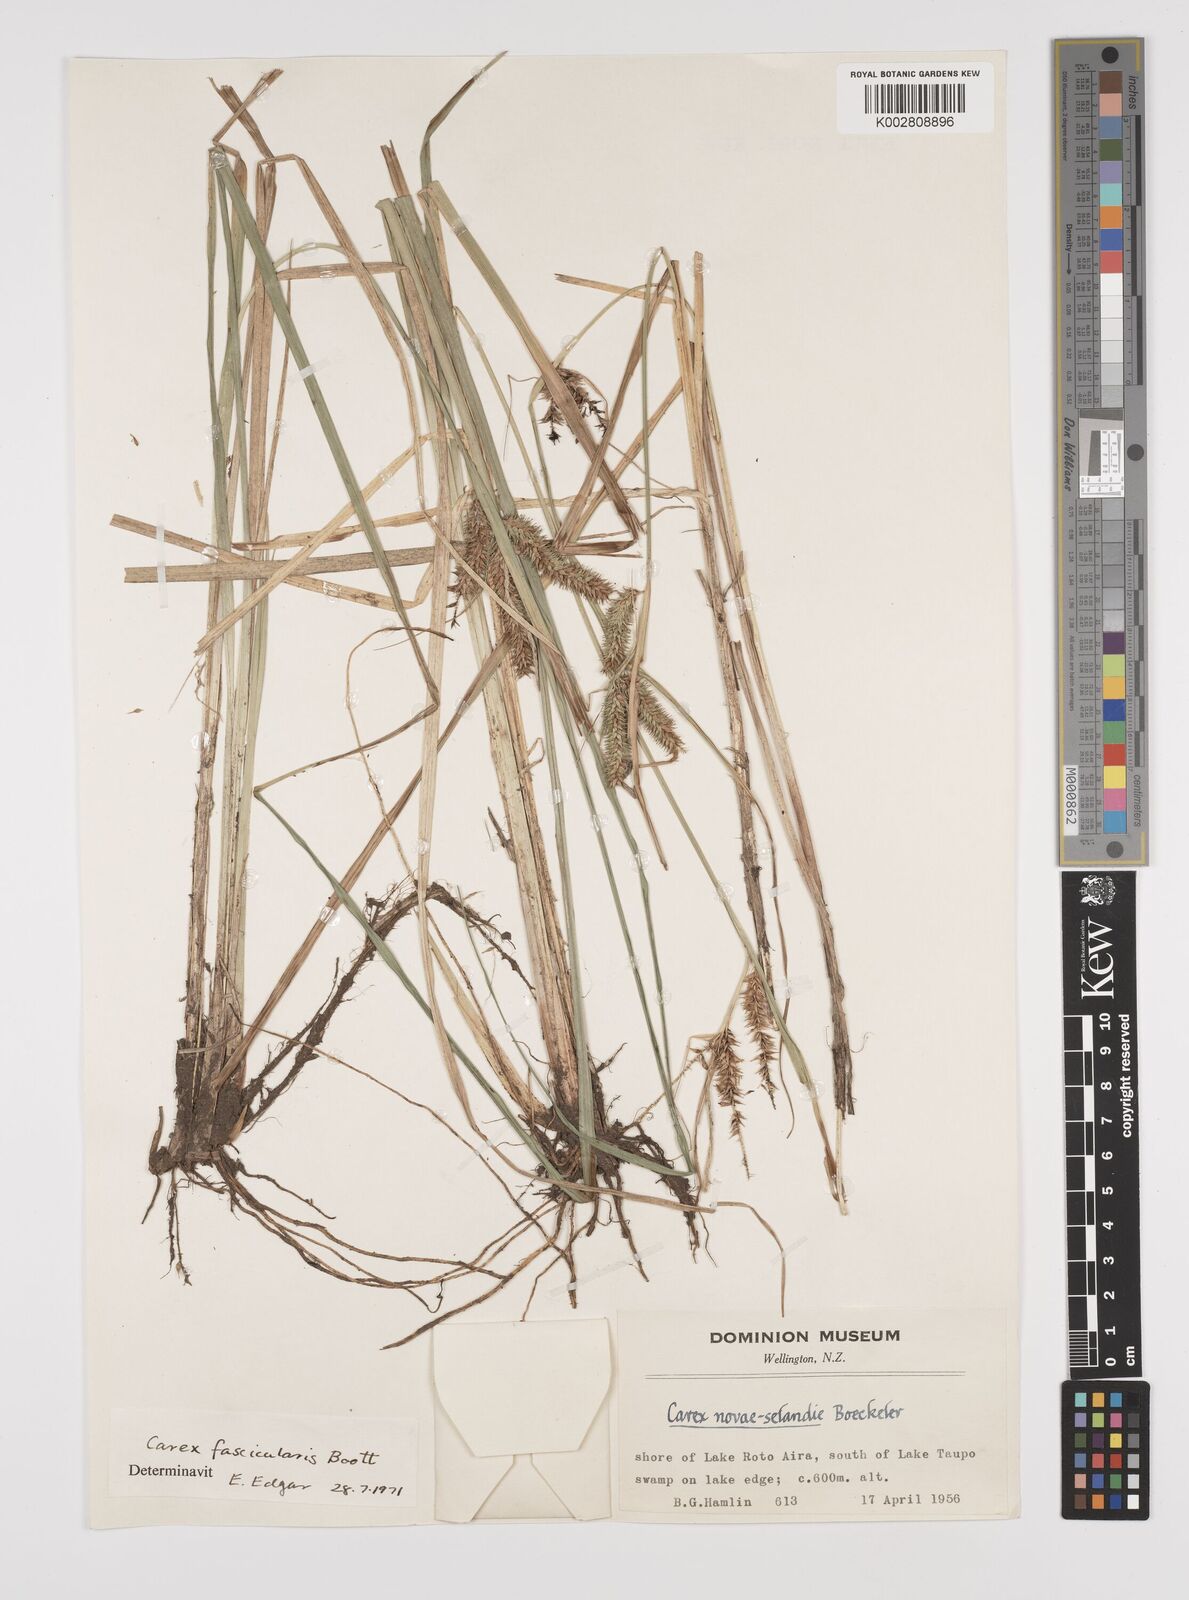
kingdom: Plantae
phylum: Tracheophyta
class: Liliopsida
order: Poales
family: Cyperaceae
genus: Carex
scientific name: Carex pseudocyperus
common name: Cyperus sedge
